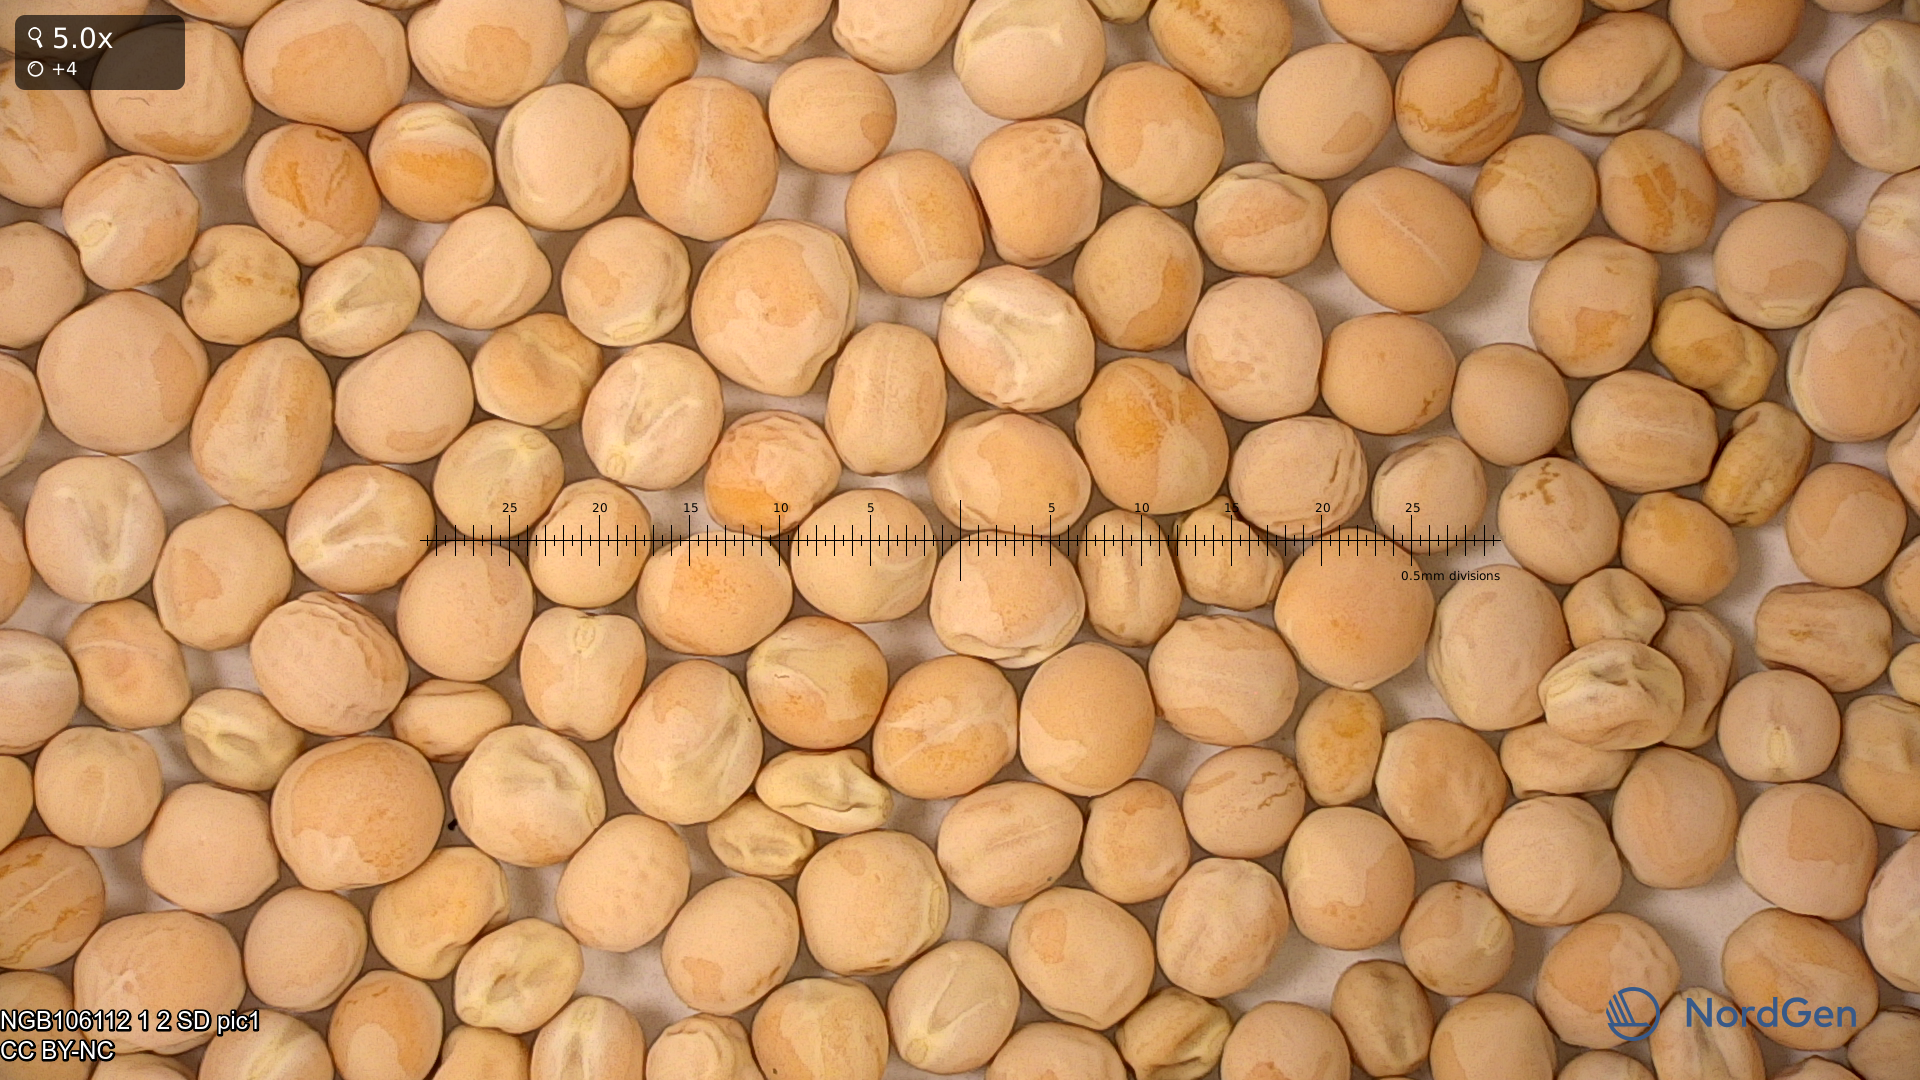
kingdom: Plantae
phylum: Tracheophyta
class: Magnoliopsida
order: Fabales
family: Fabaceae
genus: Lathyrus
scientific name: Lathyrus oleraceus
